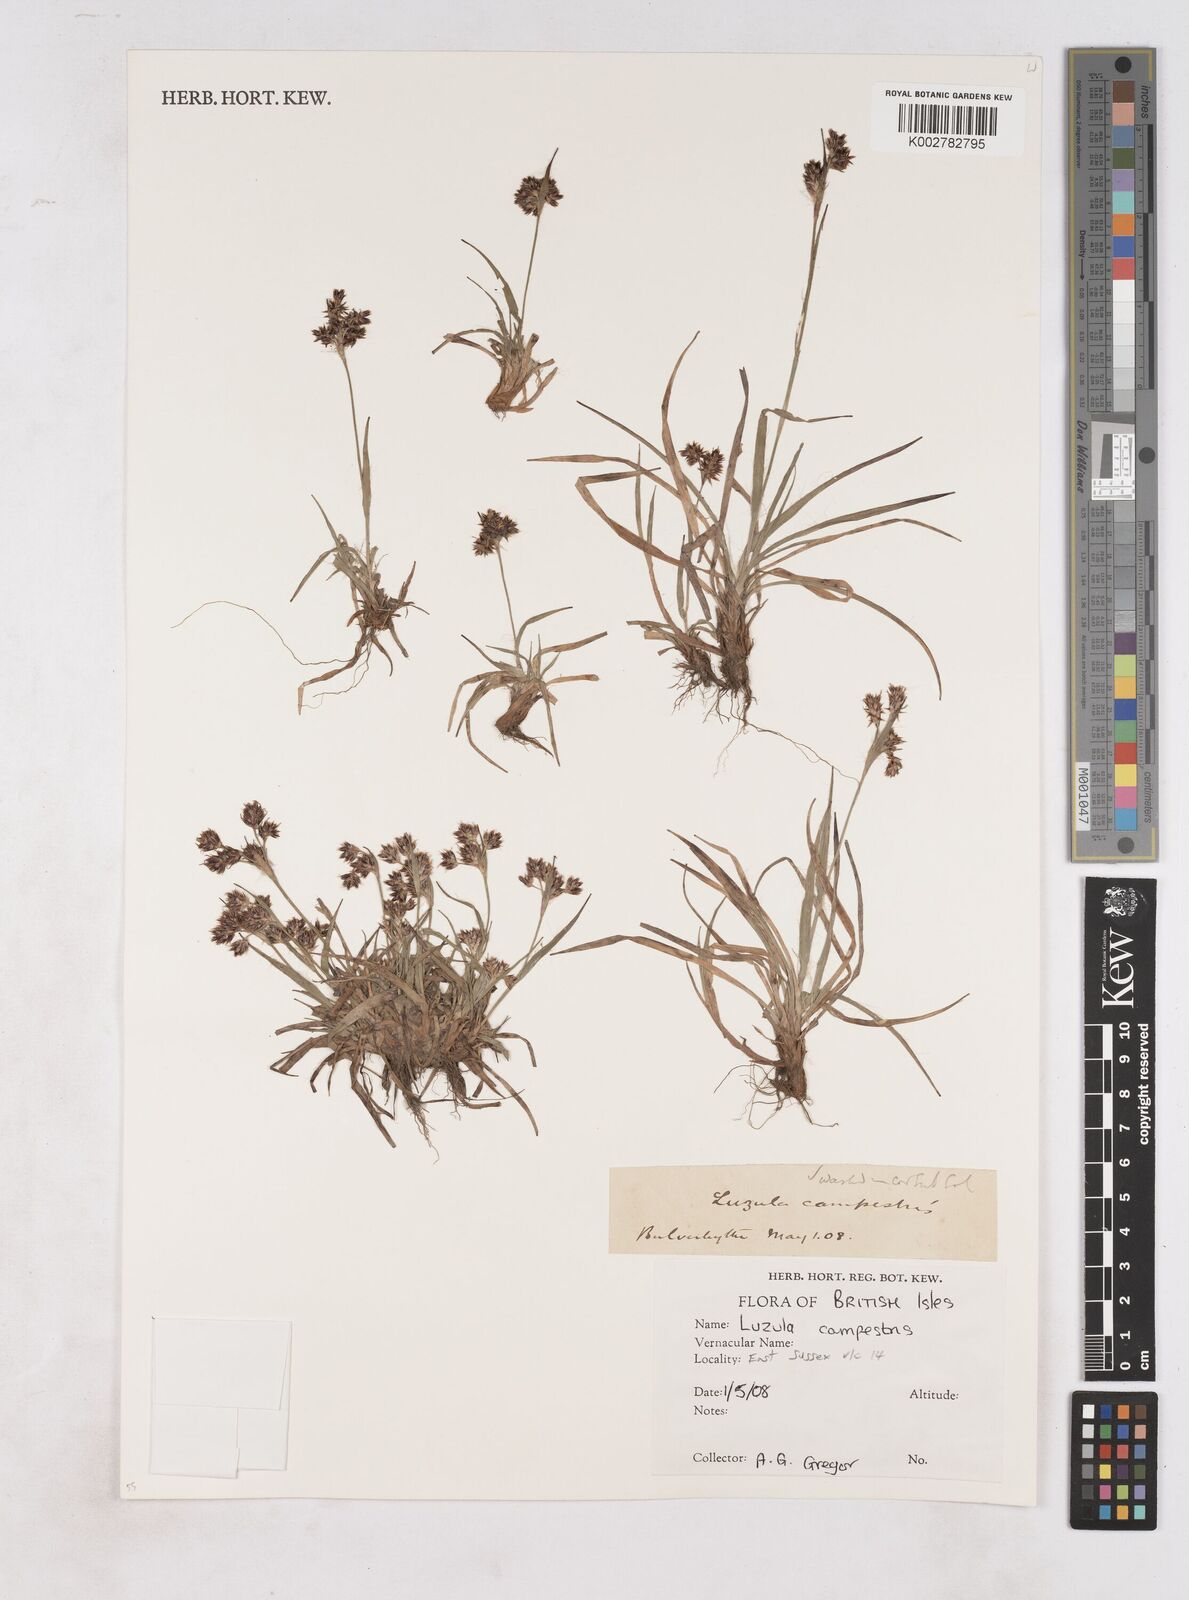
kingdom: Plantae
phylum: Tracheophyta
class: Liliopsida
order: Poales
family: Juncaceae
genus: Luzula
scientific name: Luzula campestris
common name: Field wood-rush
